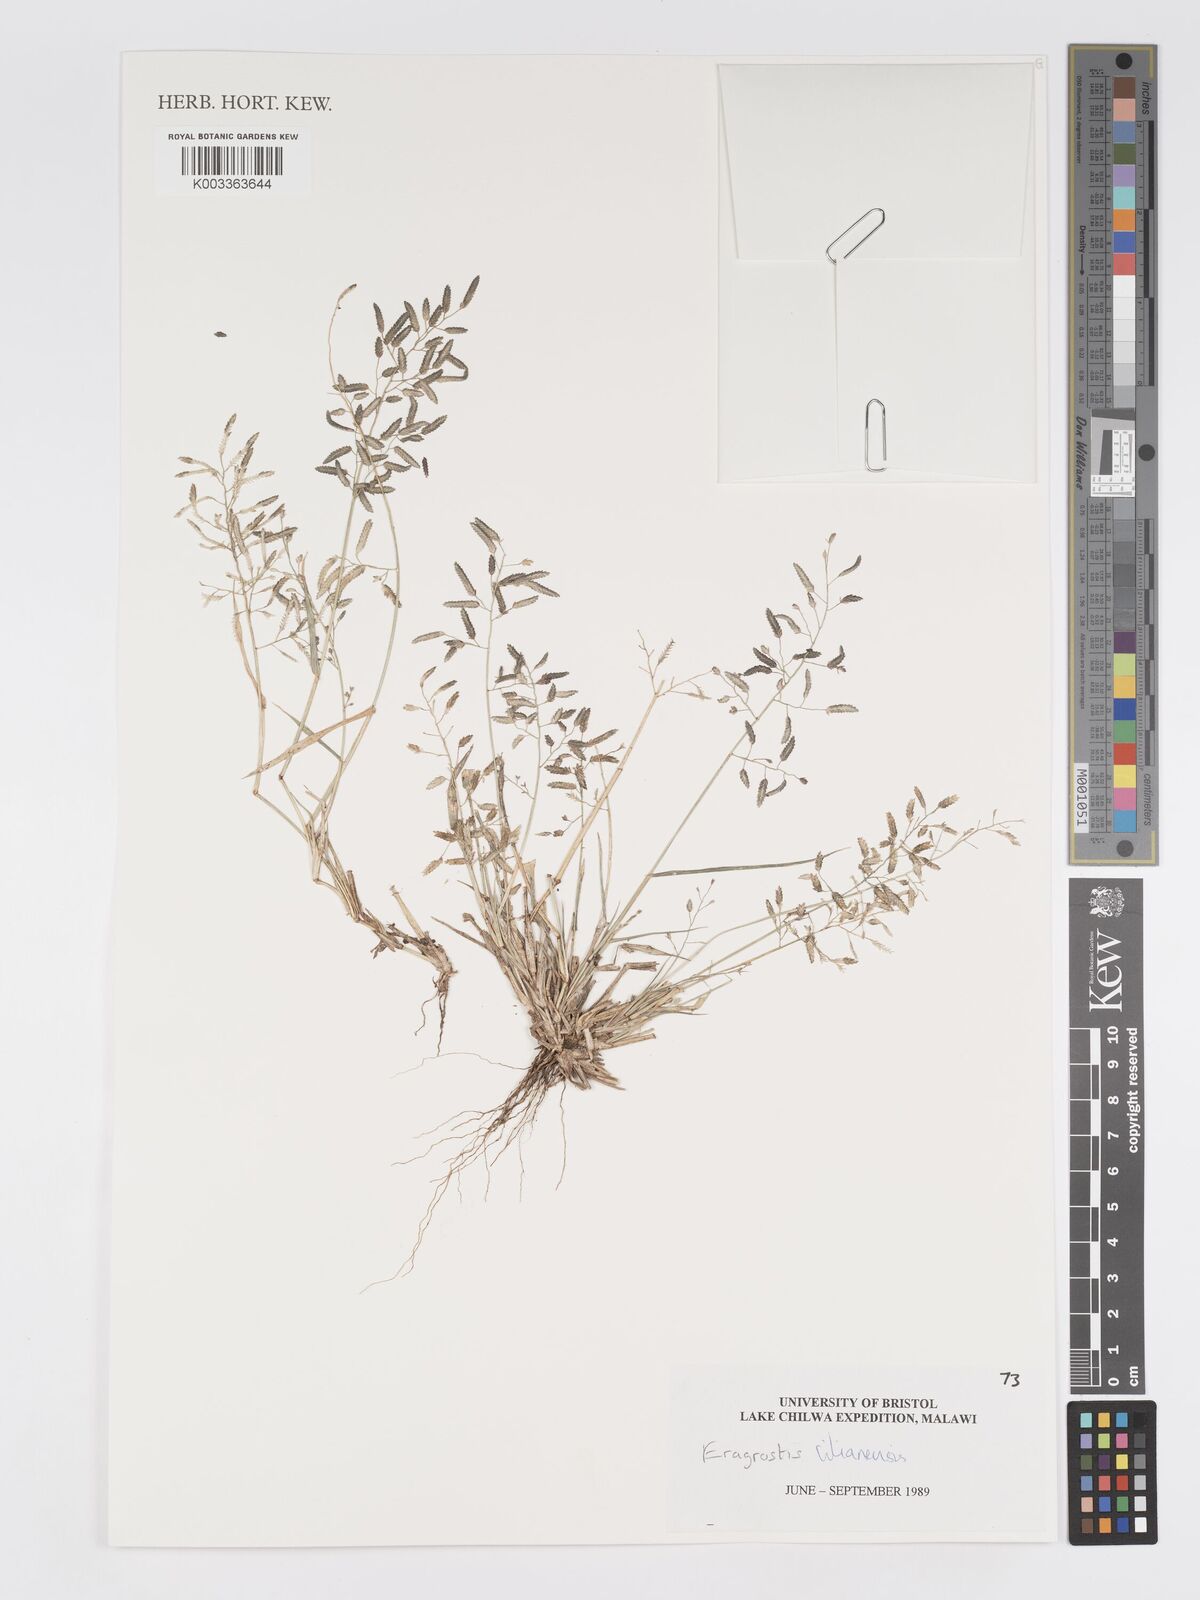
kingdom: Plantae
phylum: Tracheophyta
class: Liliopsida
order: Poales
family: Poaceae
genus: Eragrostis
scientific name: Eragrostis cilianensis
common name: Stinkgrass
